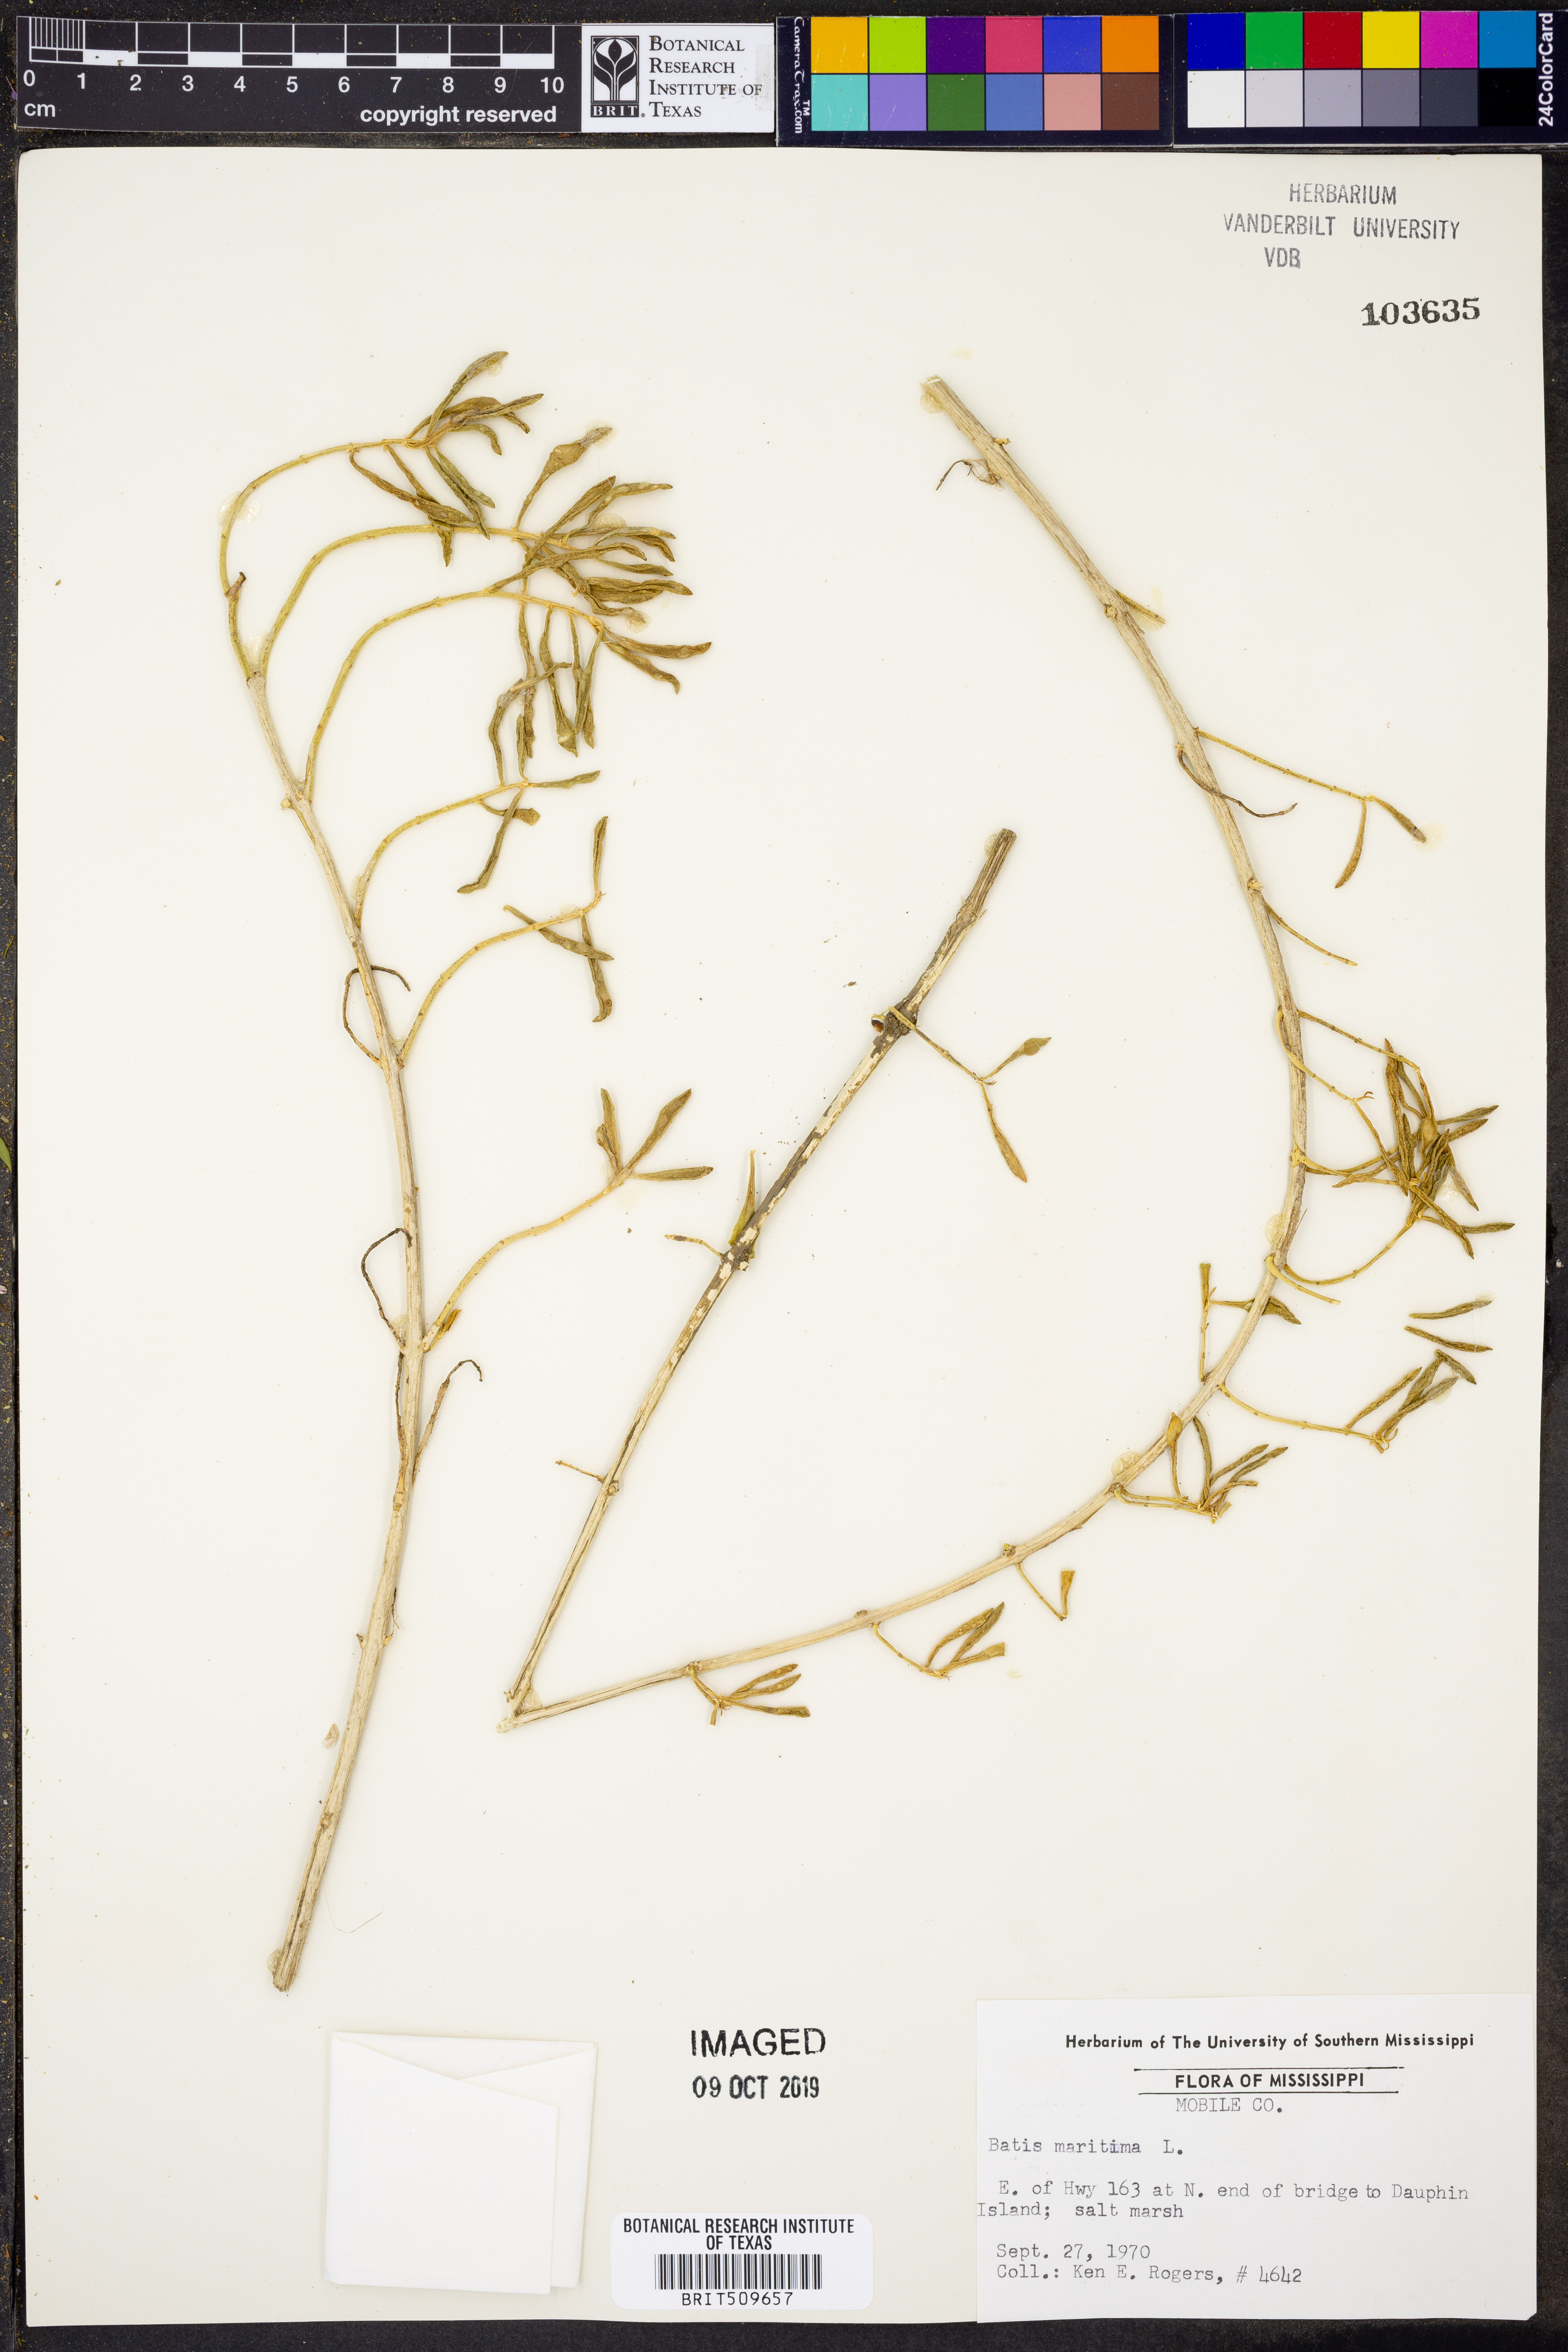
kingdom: Plantae
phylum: Tracheophyta
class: Magnoliopsida
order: Brassicales
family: Bataceae
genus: Batis
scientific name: Batis maritima
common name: Turtleweed
